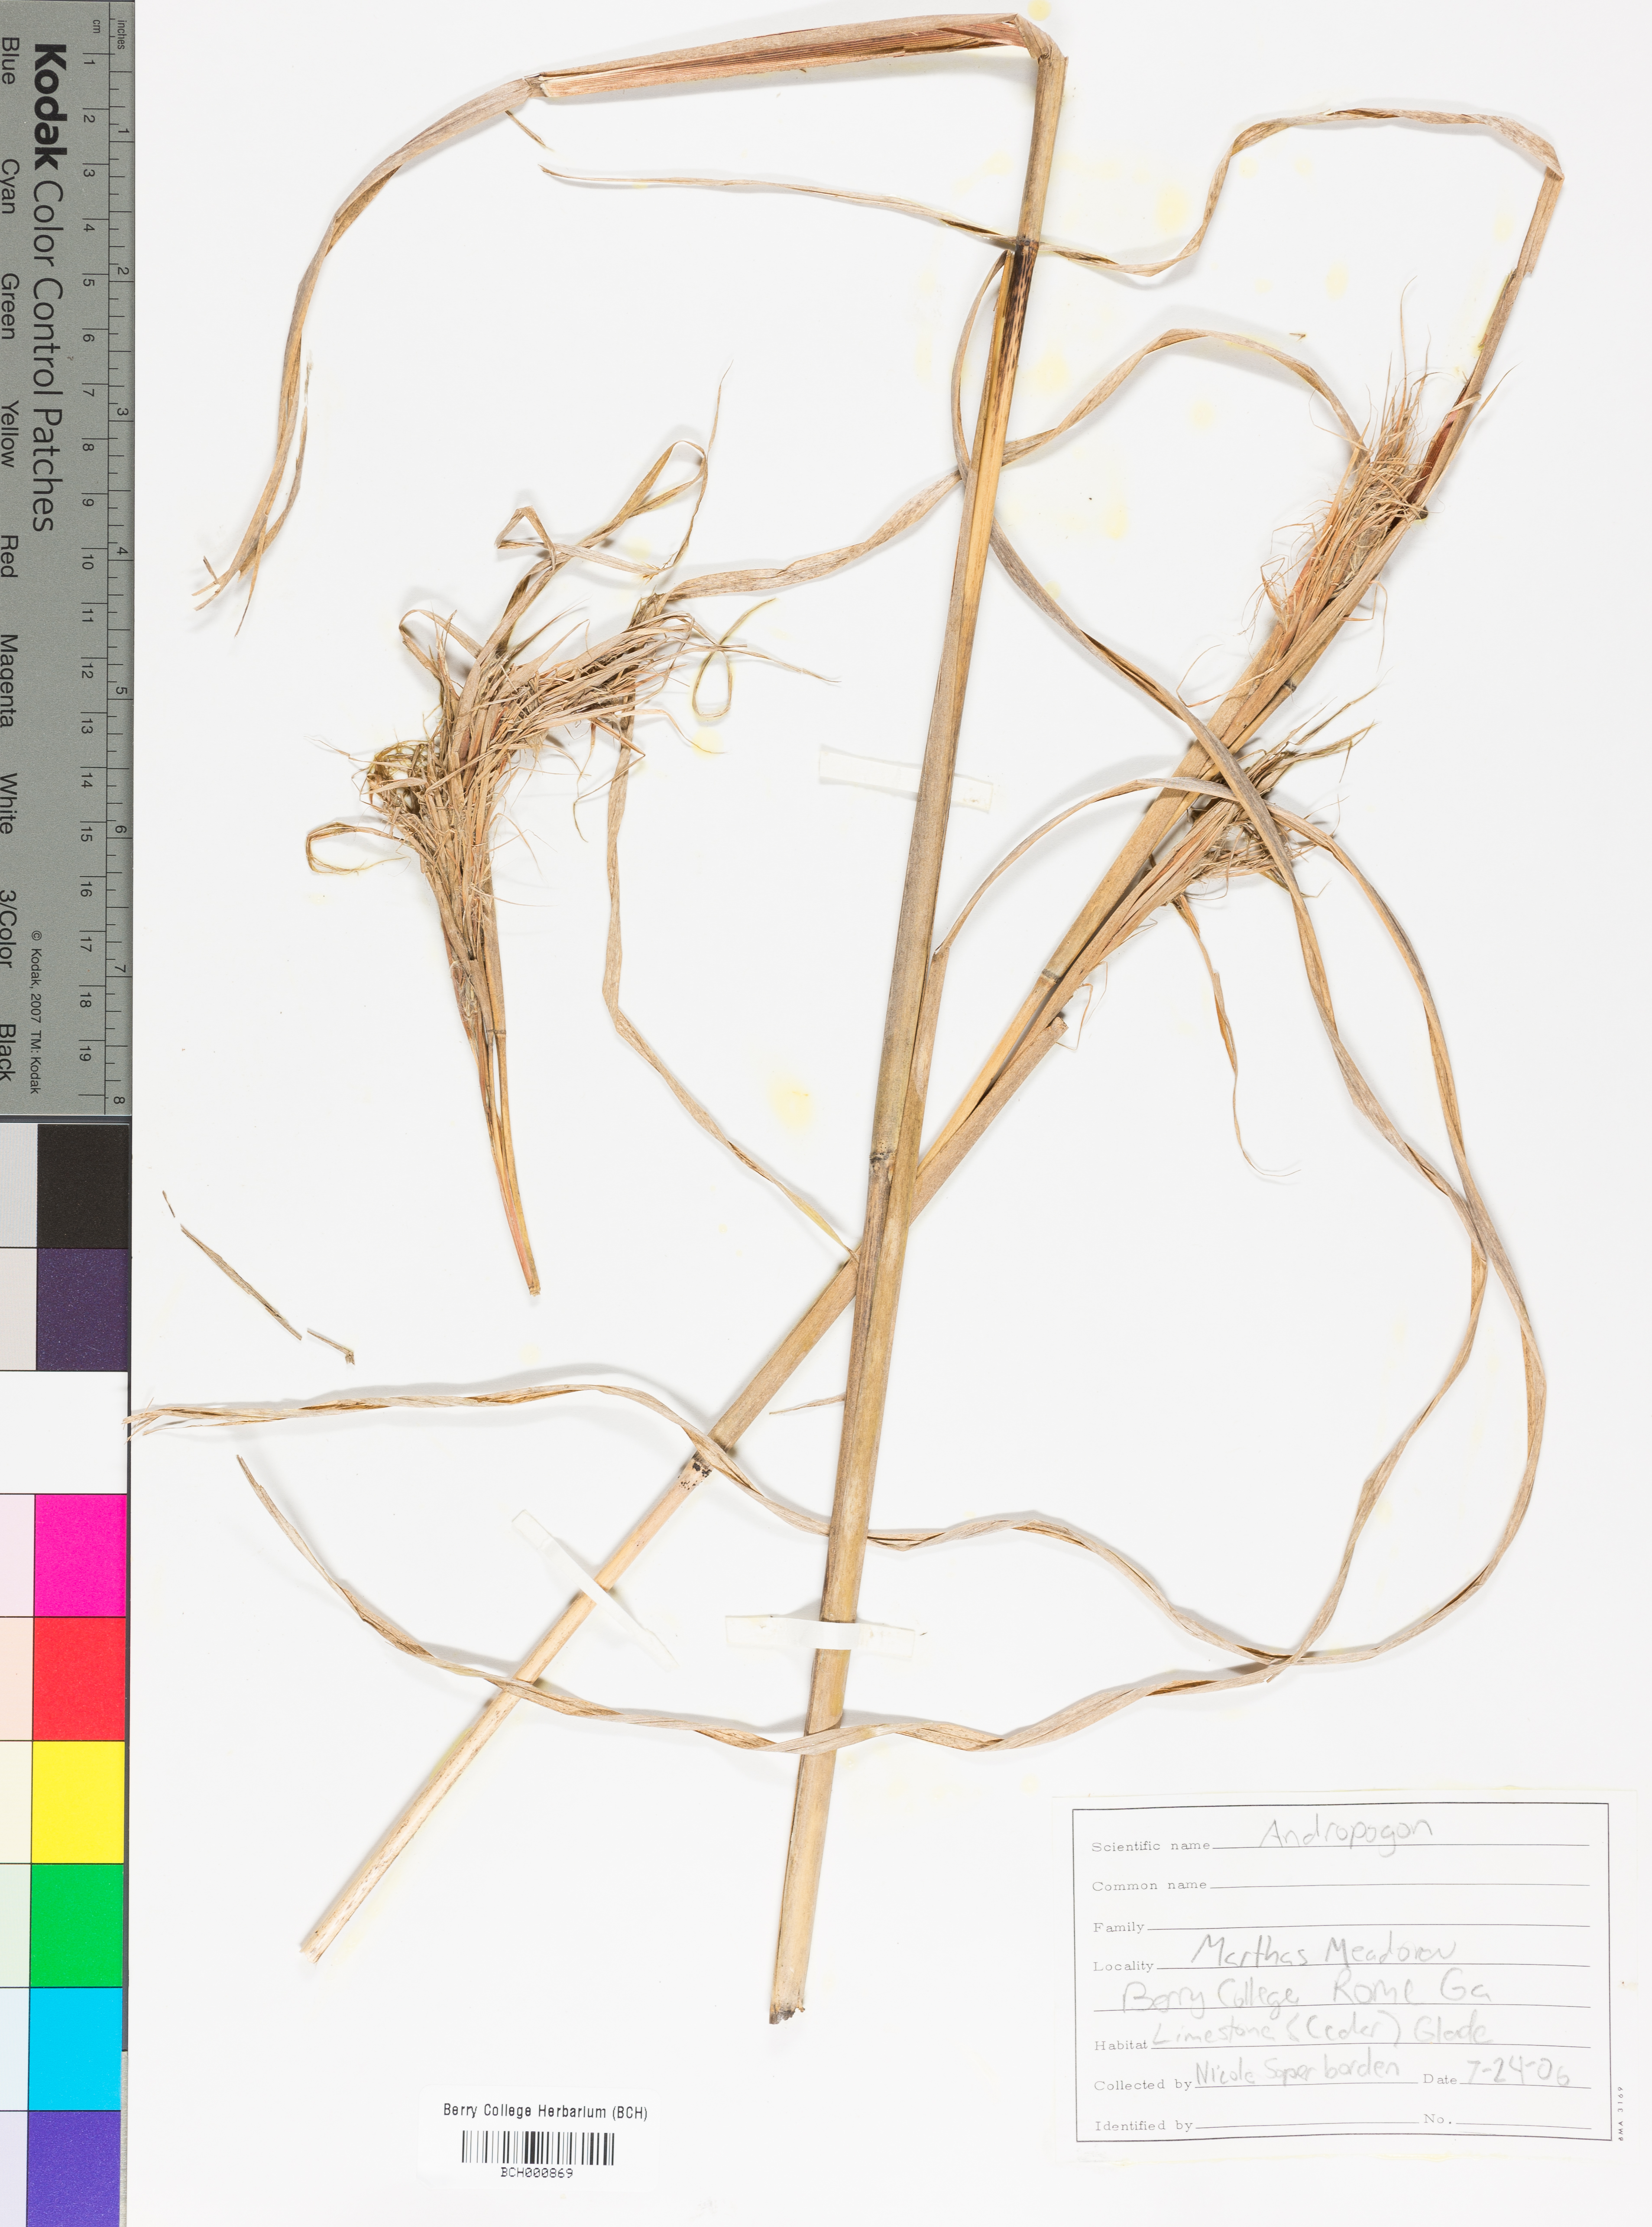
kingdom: Plantae
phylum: Tracheophyta
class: Liliopsida
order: Poales
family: Poaceae
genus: Andropogon
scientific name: Andropogon
